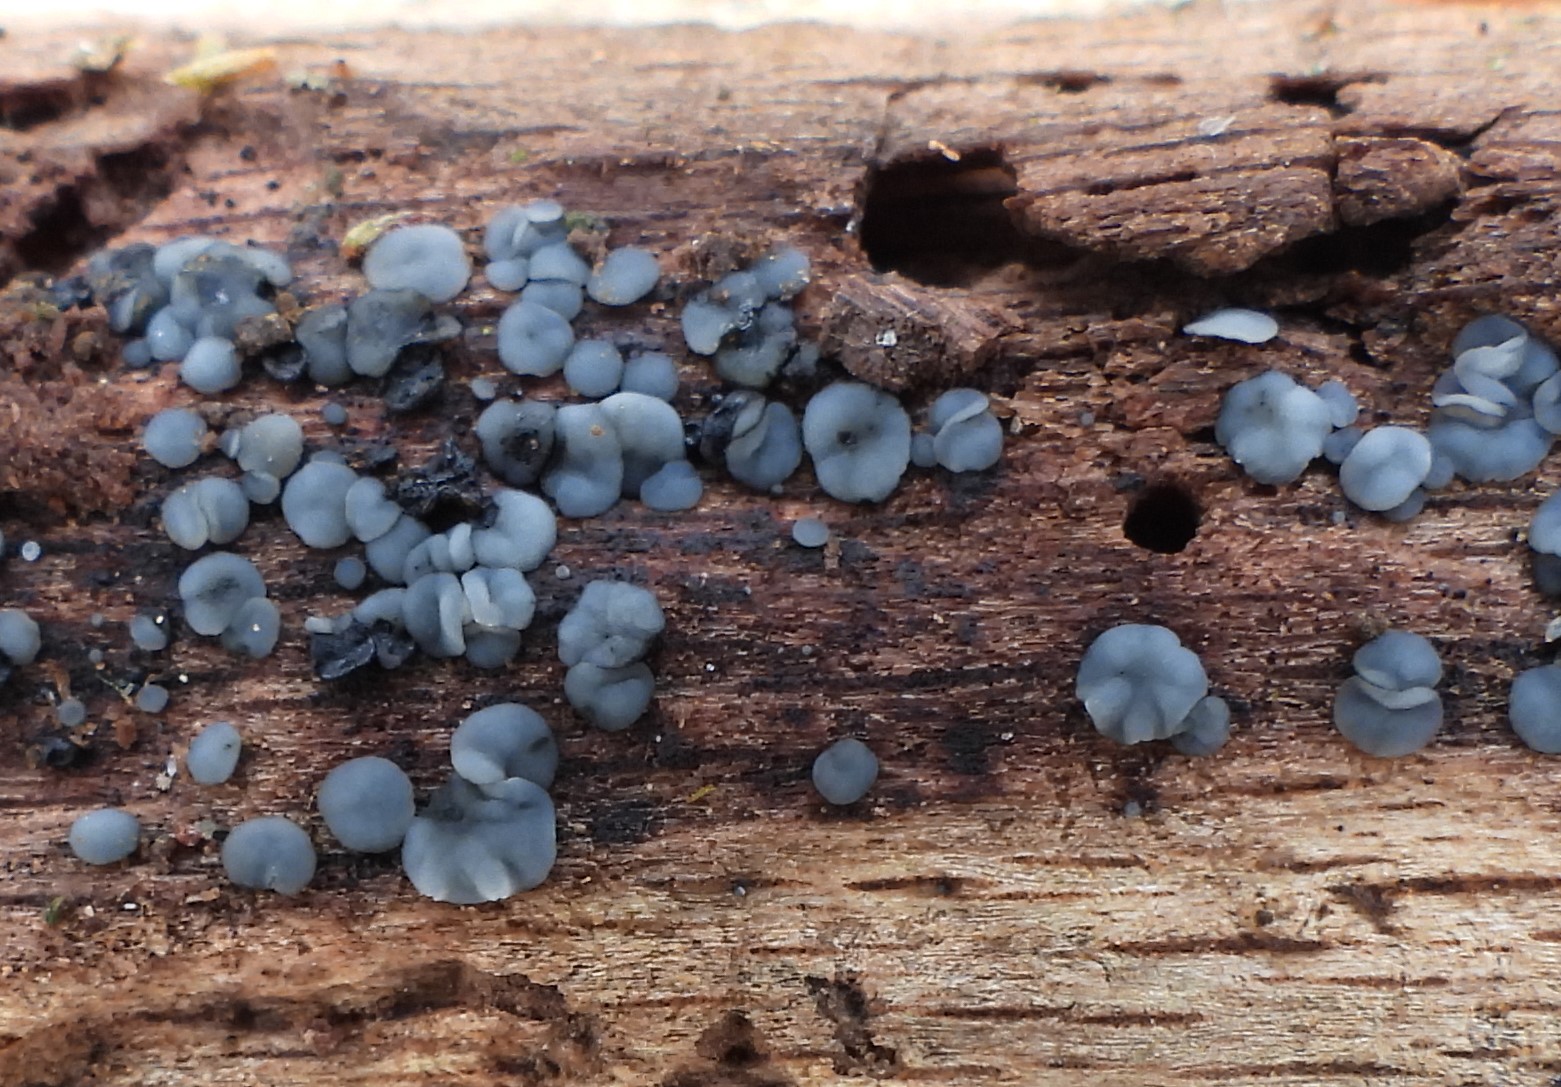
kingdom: Fungi
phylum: Ascomycota
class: Leotiomycetes
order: Helotiales
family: Mollisiaceae
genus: Mollisia
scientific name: Mollisia
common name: gråskive
